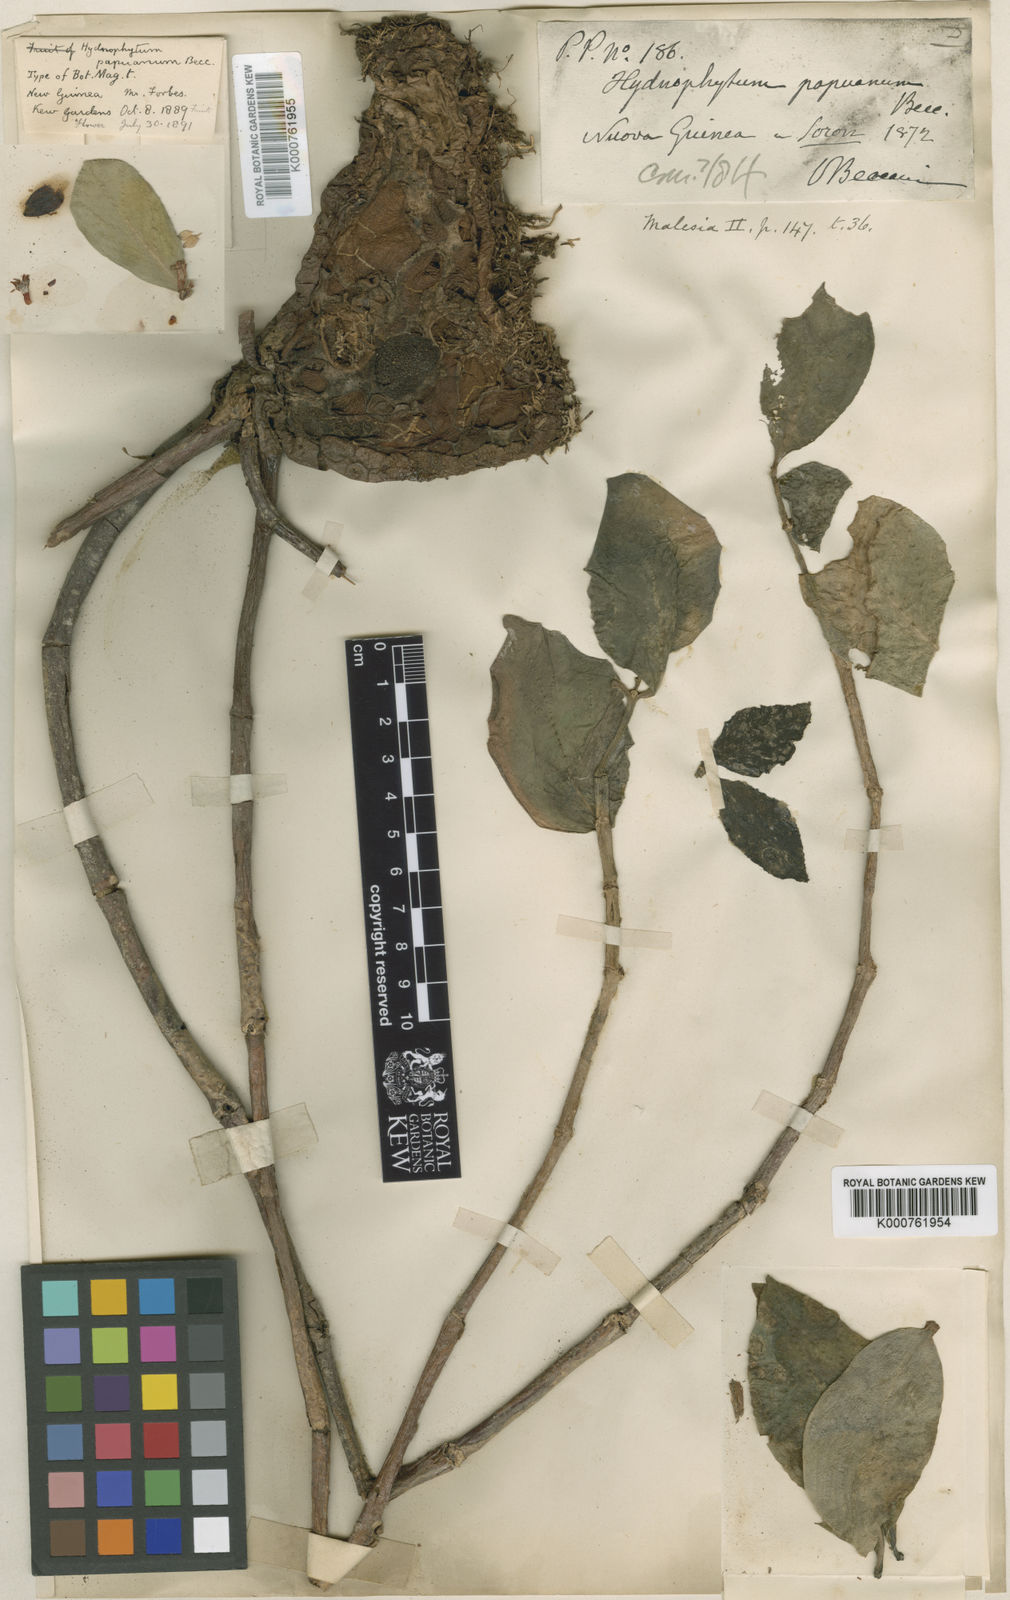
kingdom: Plantae
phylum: Tracheophyta
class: Magnoliopsida
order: Gentianales
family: Rubiaceae
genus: Hydnophytum
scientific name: Hydnophytum moseleyanum
